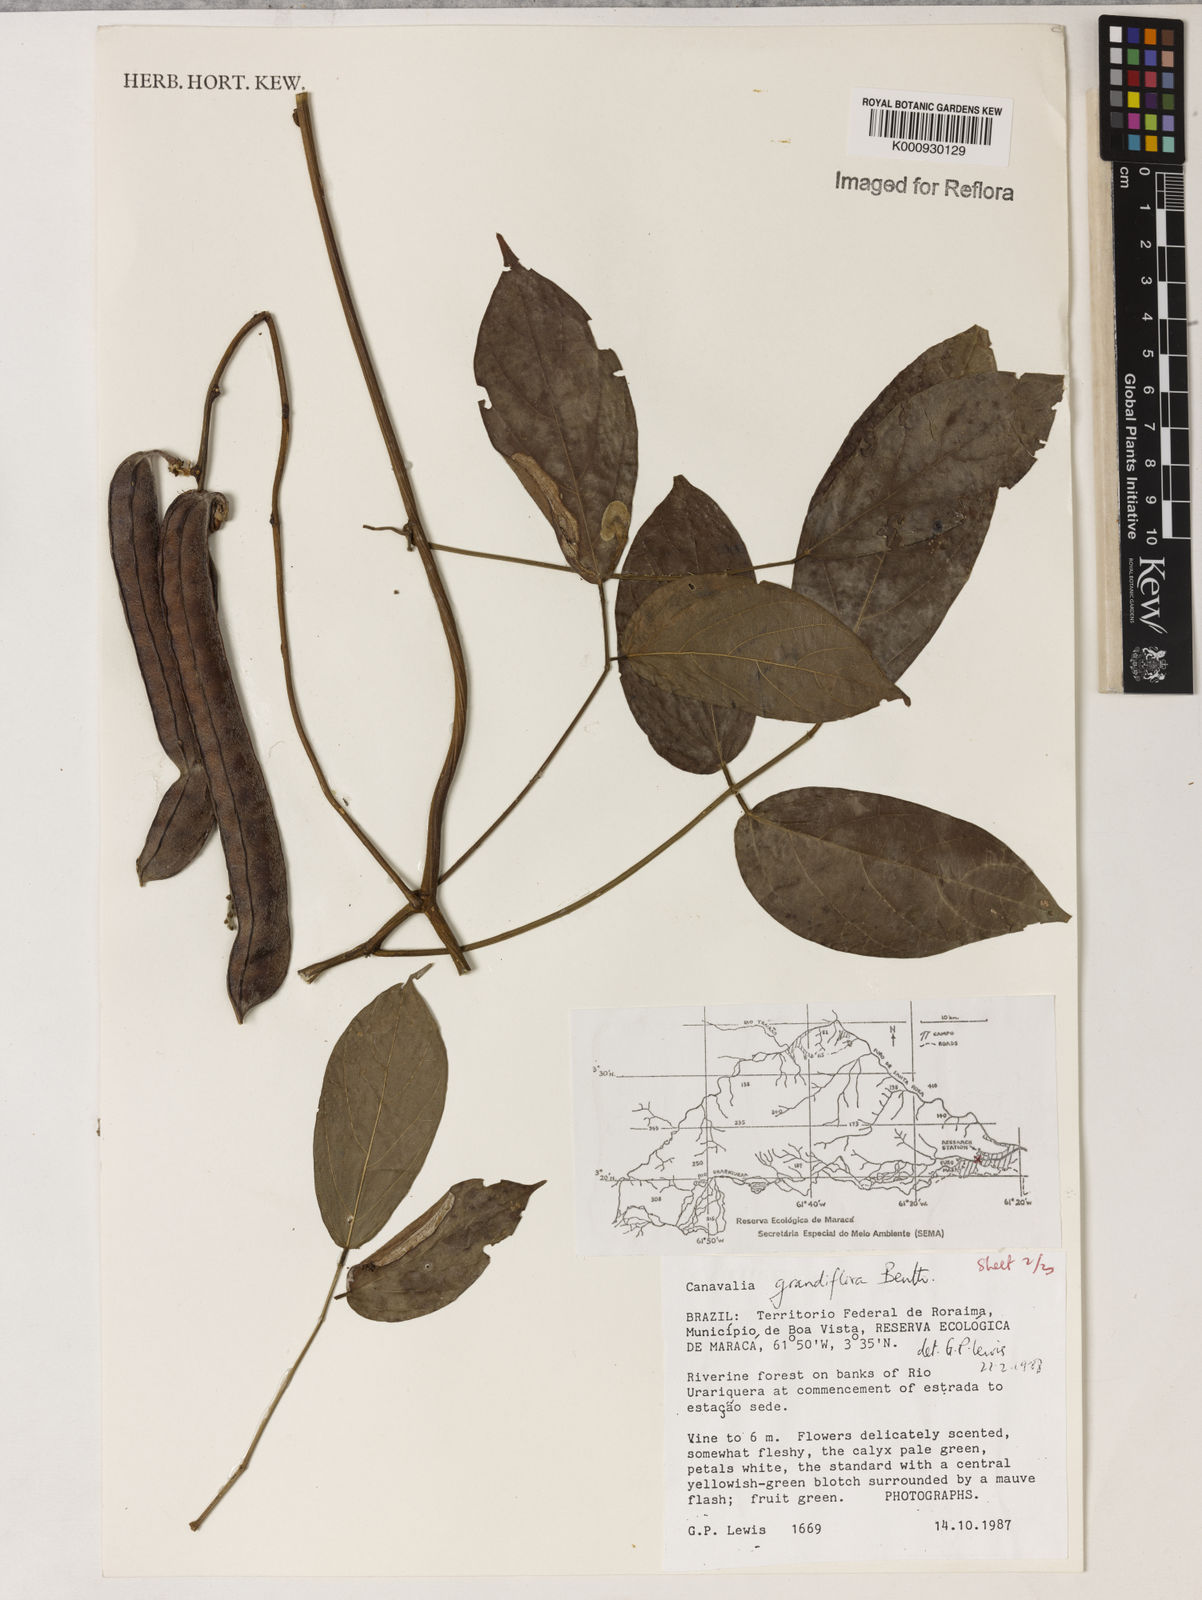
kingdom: Plantae
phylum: Tracheophyta
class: Magnoliopsida
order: Fabales
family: Fabaceae
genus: Canavalia
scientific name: Canavalia grandiflora
